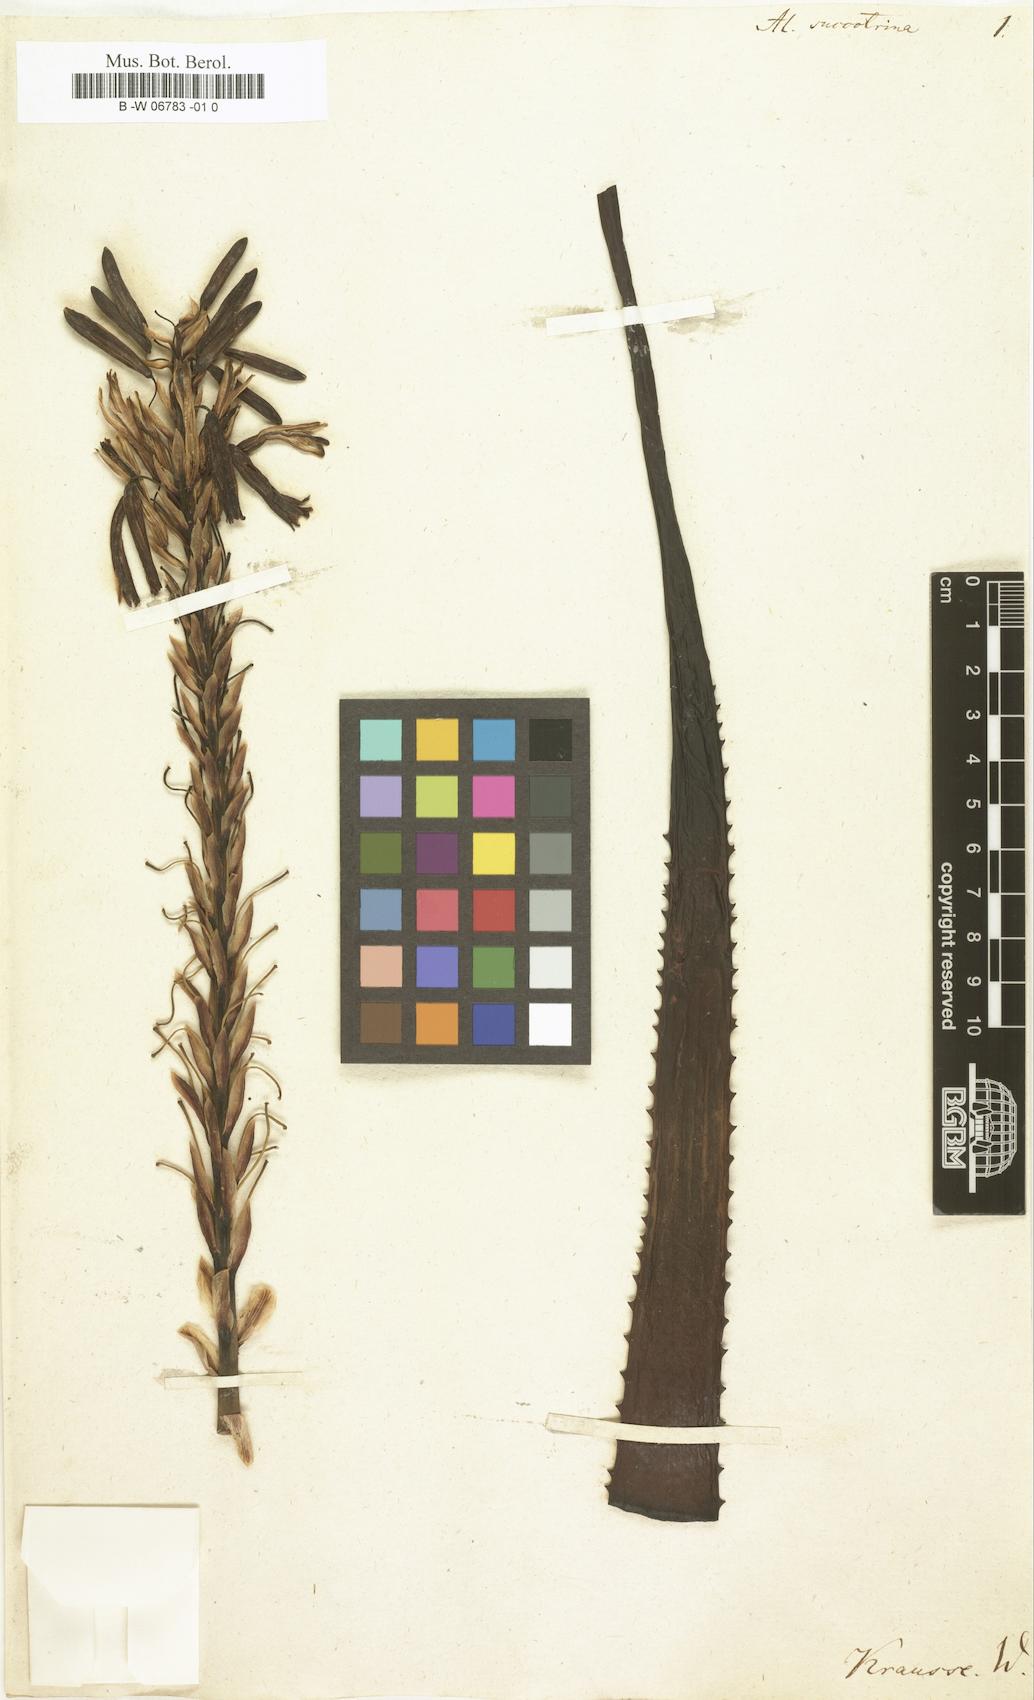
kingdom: Plantae
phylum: Tracheophyta
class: Liliopsida
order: Asparagales
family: Asphodelaceae
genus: Aloe
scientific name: Aloe soccotrina
